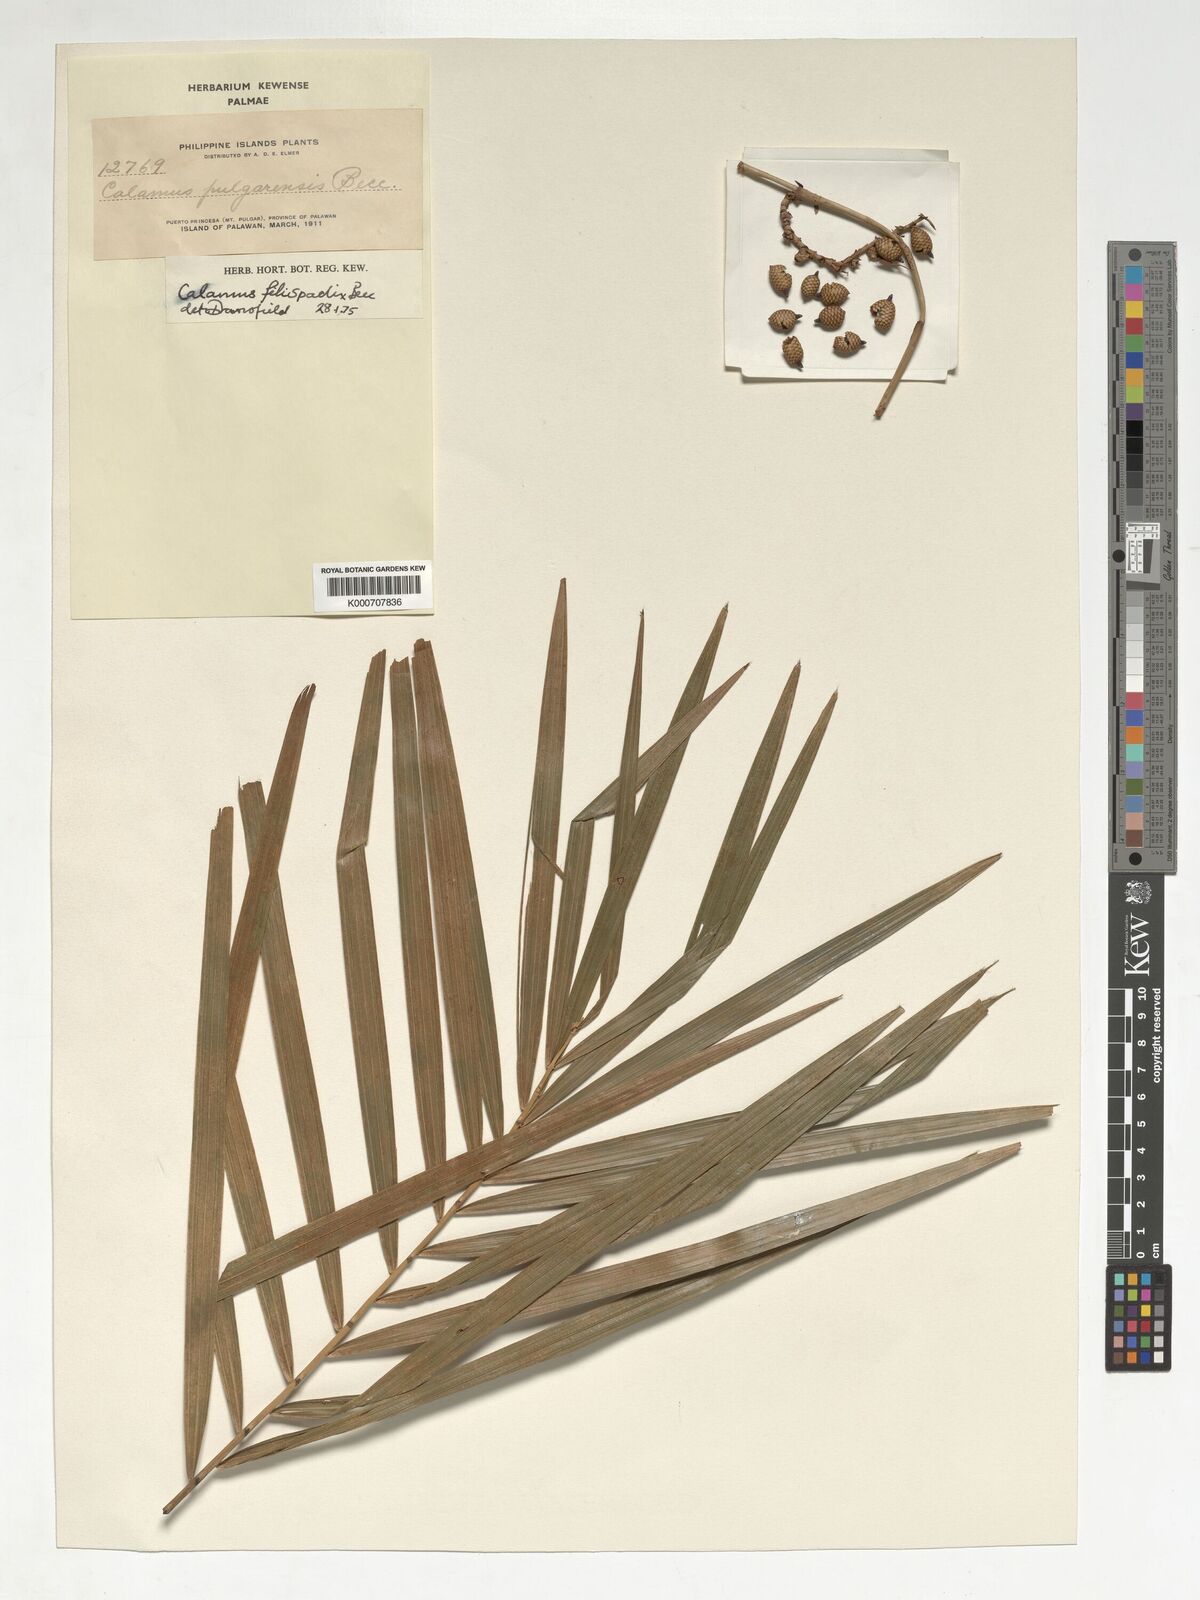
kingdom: Plantae
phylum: Tracheophyta
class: Liliopsida
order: Arecales
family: Arecaceae
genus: Calamus
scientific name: Calamus filispadix
